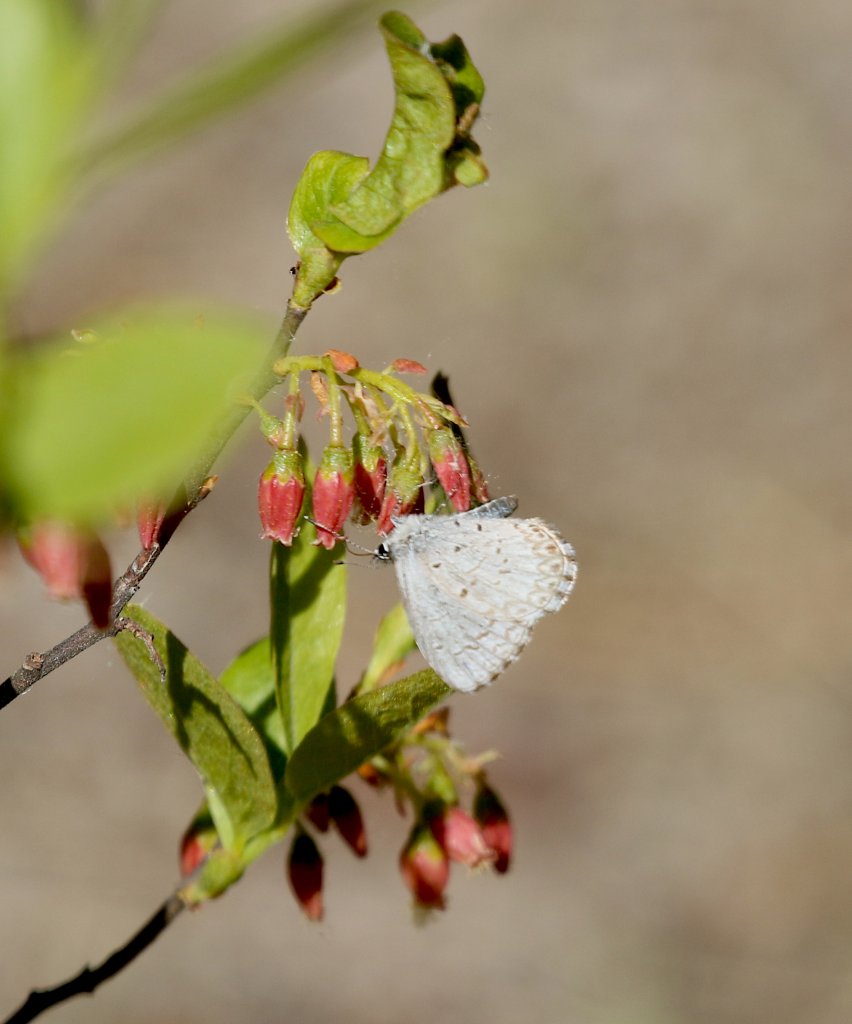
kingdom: Animalia
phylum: Arthropoda
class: Insecta
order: Lepidoptera
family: Lycaenidae
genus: Celastrina
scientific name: Celastrina ladon
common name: Spring Azure
